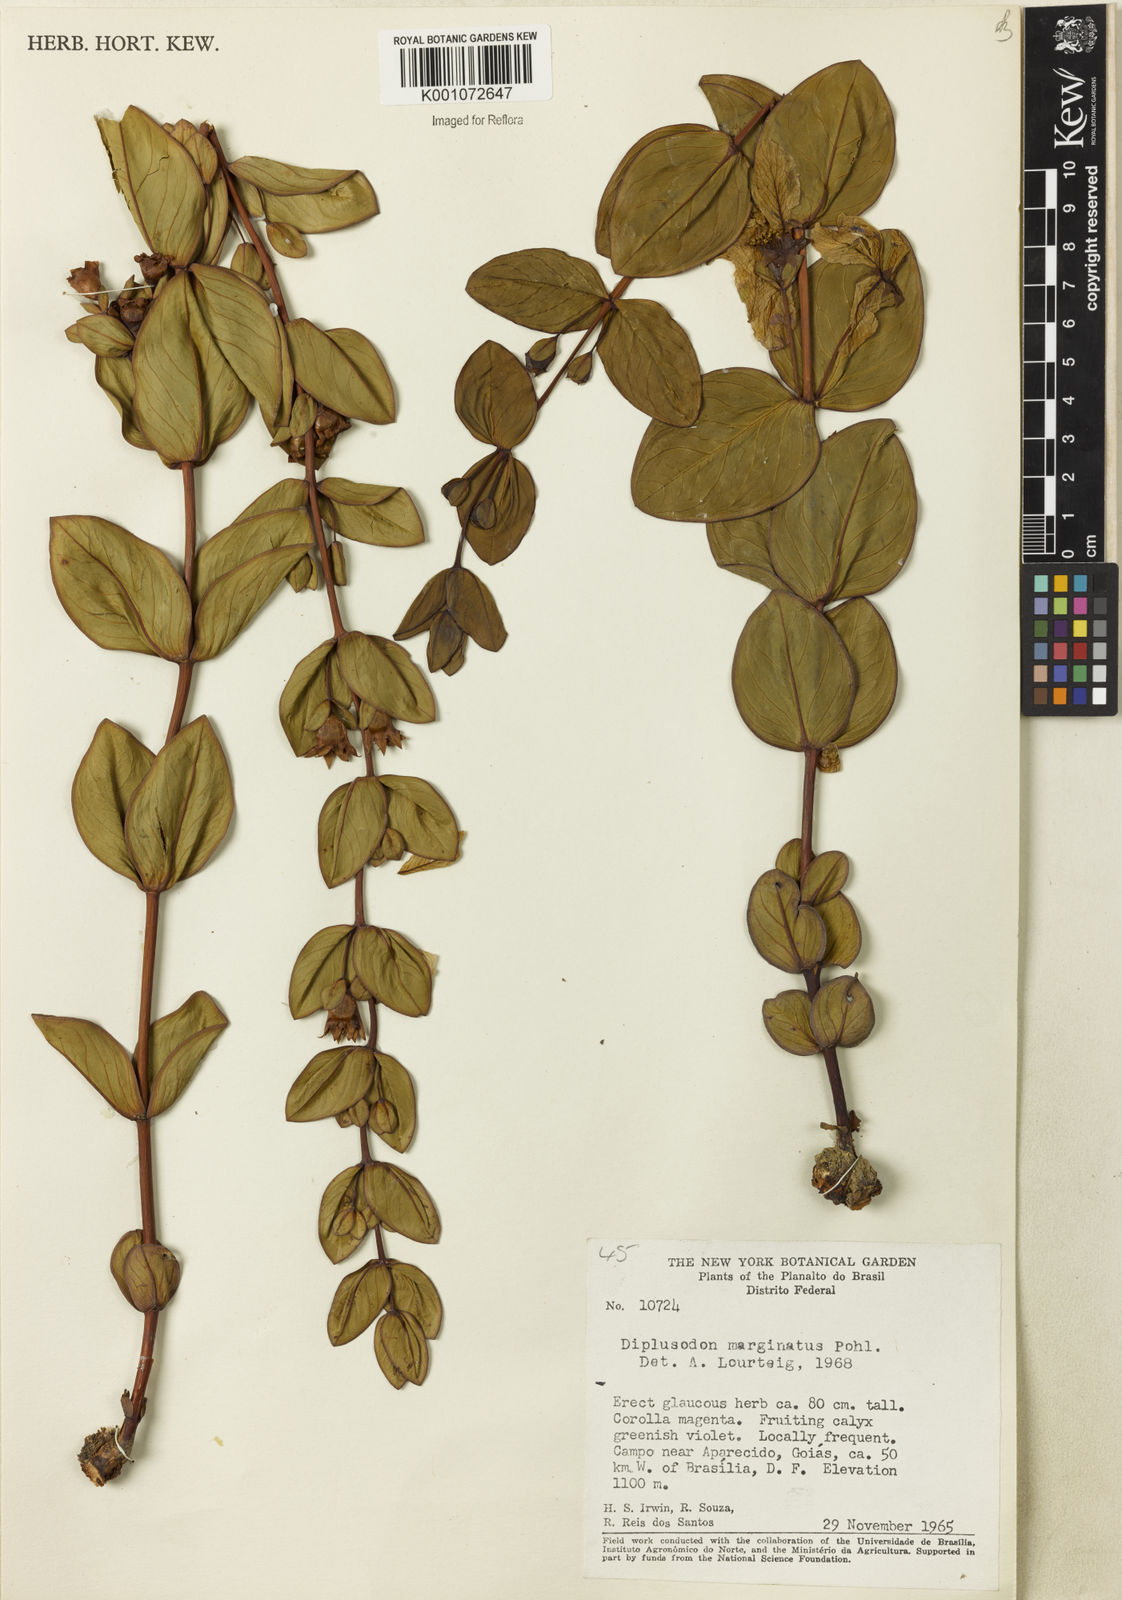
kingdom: Plantae
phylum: Tracheophyta
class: Magnoliopsida
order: Myrtales
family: Lythraceae
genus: Diplusodon
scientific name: Diplusodon marginatus
